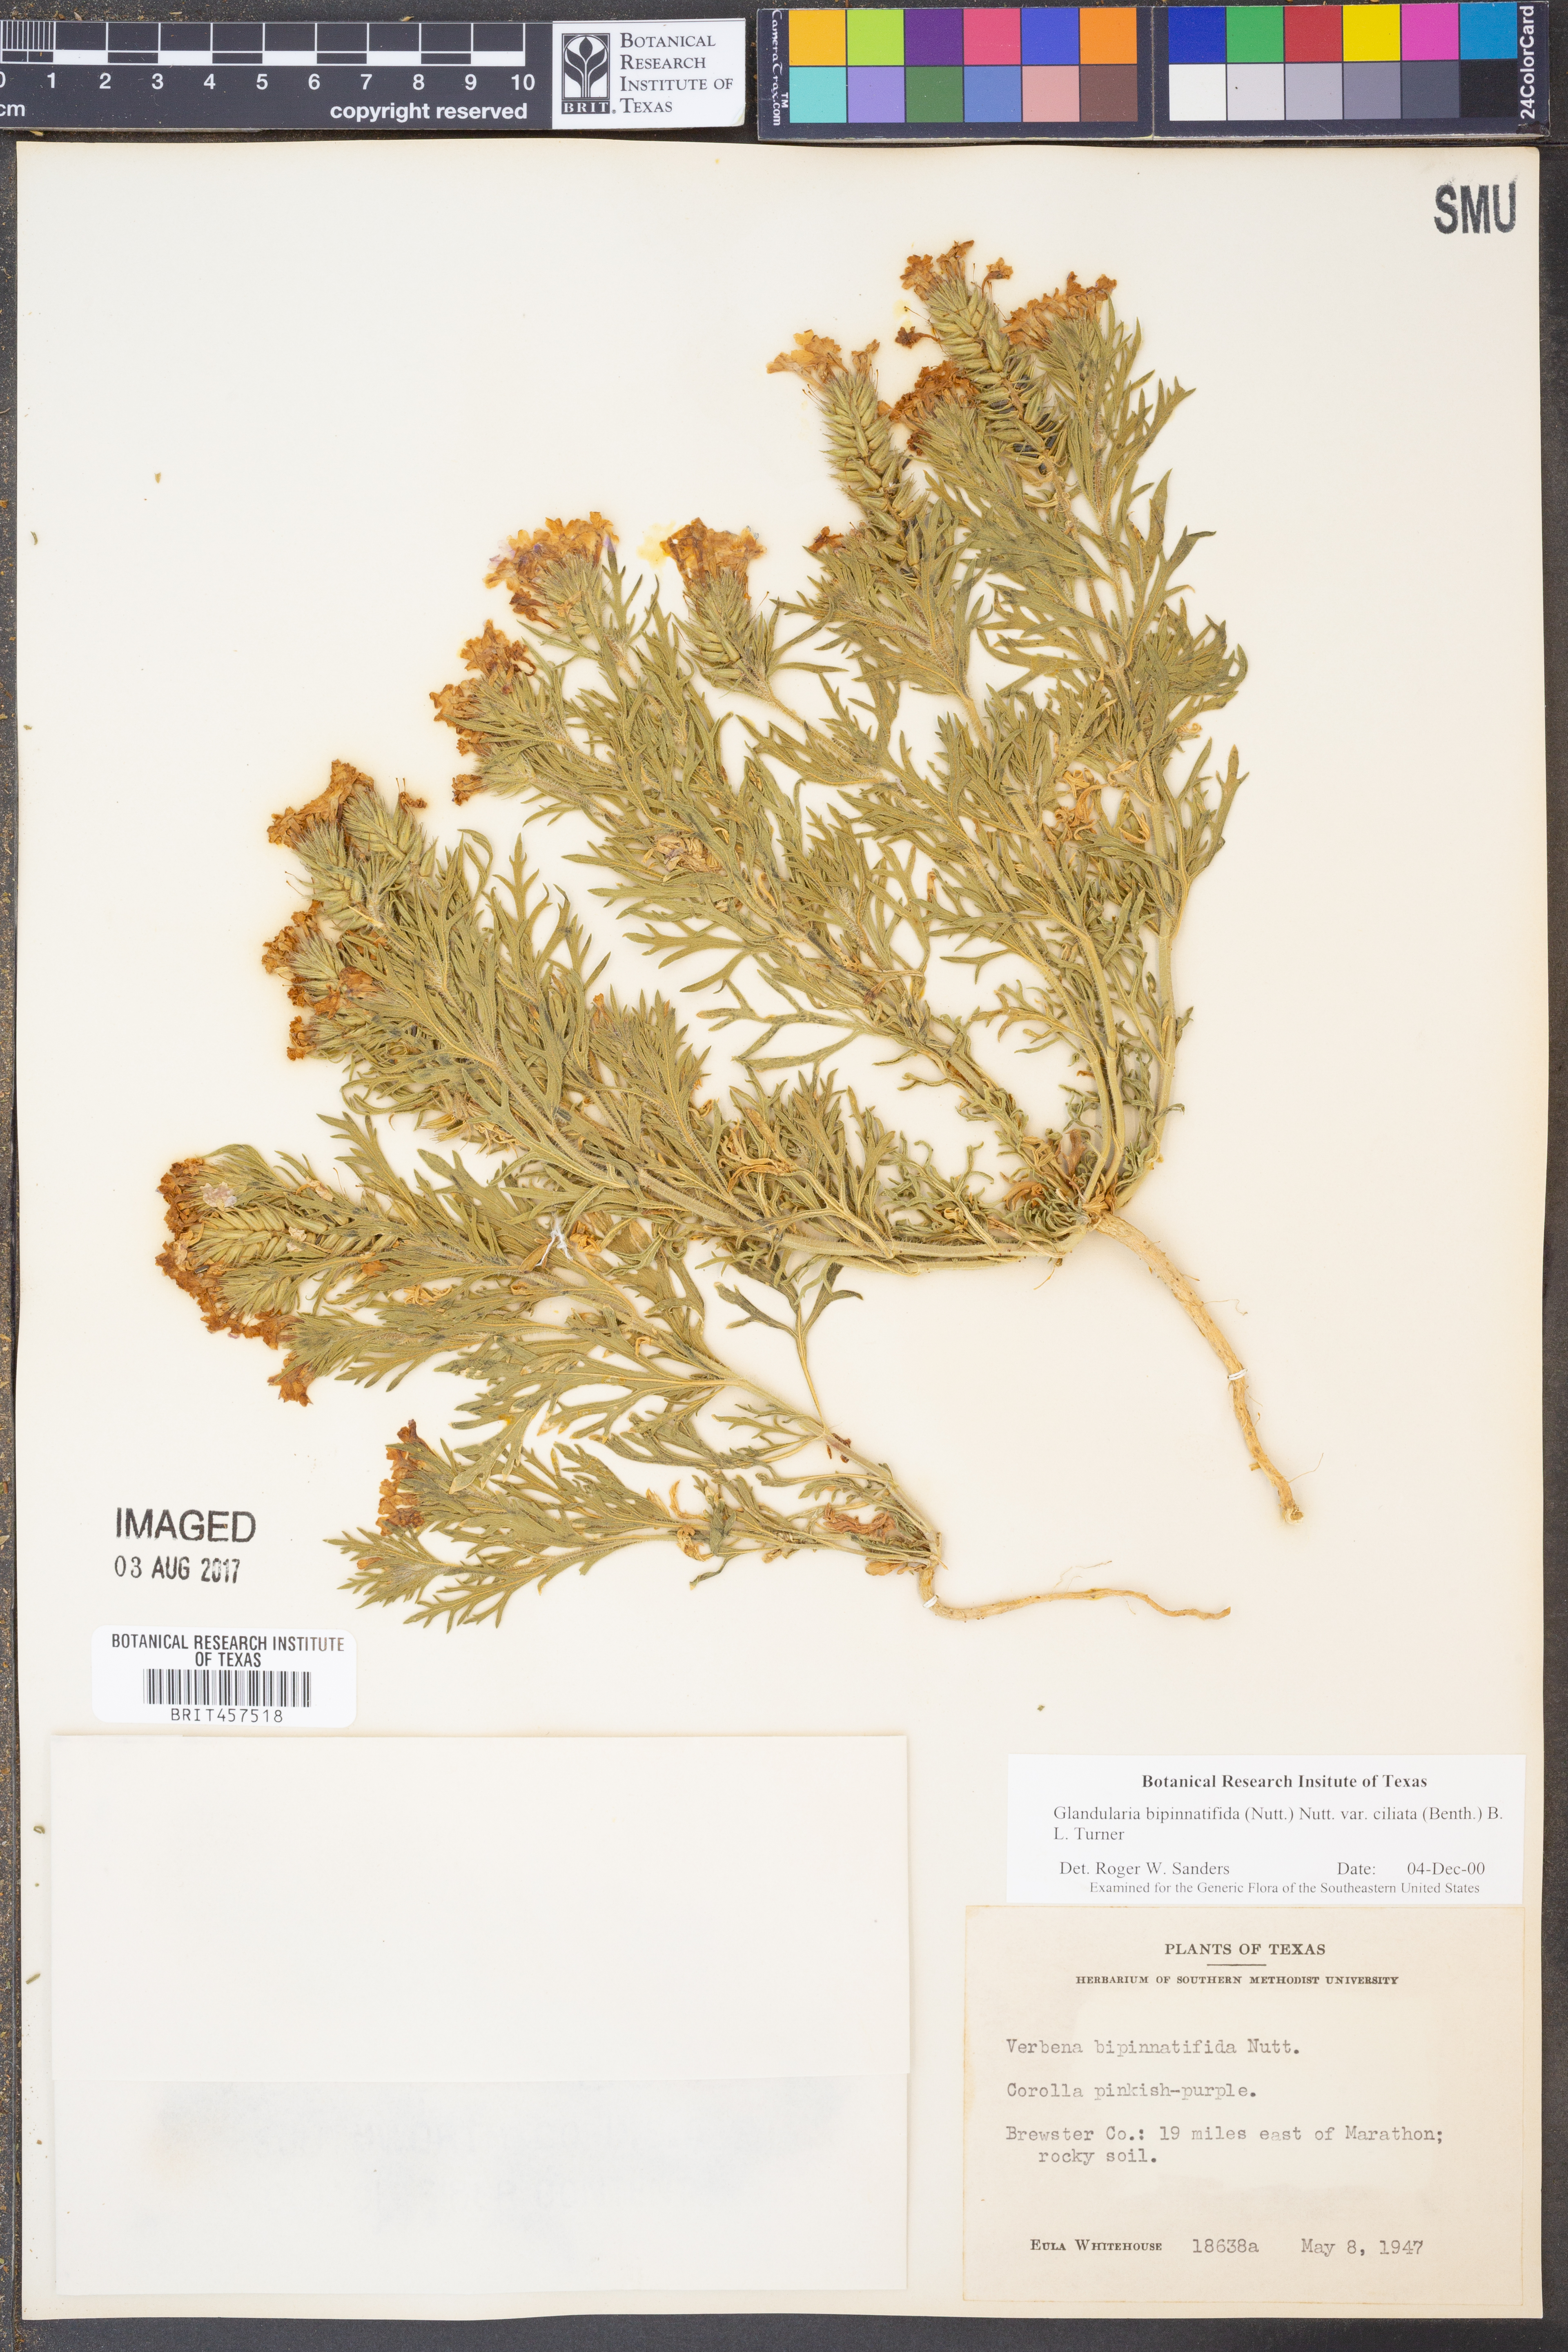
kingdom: Plantae
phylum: Tracheophyta
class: Magnoliopsida
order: Lamiales
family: Verbenaceae
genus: Verbena
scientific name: Verbena bipinnatifida
